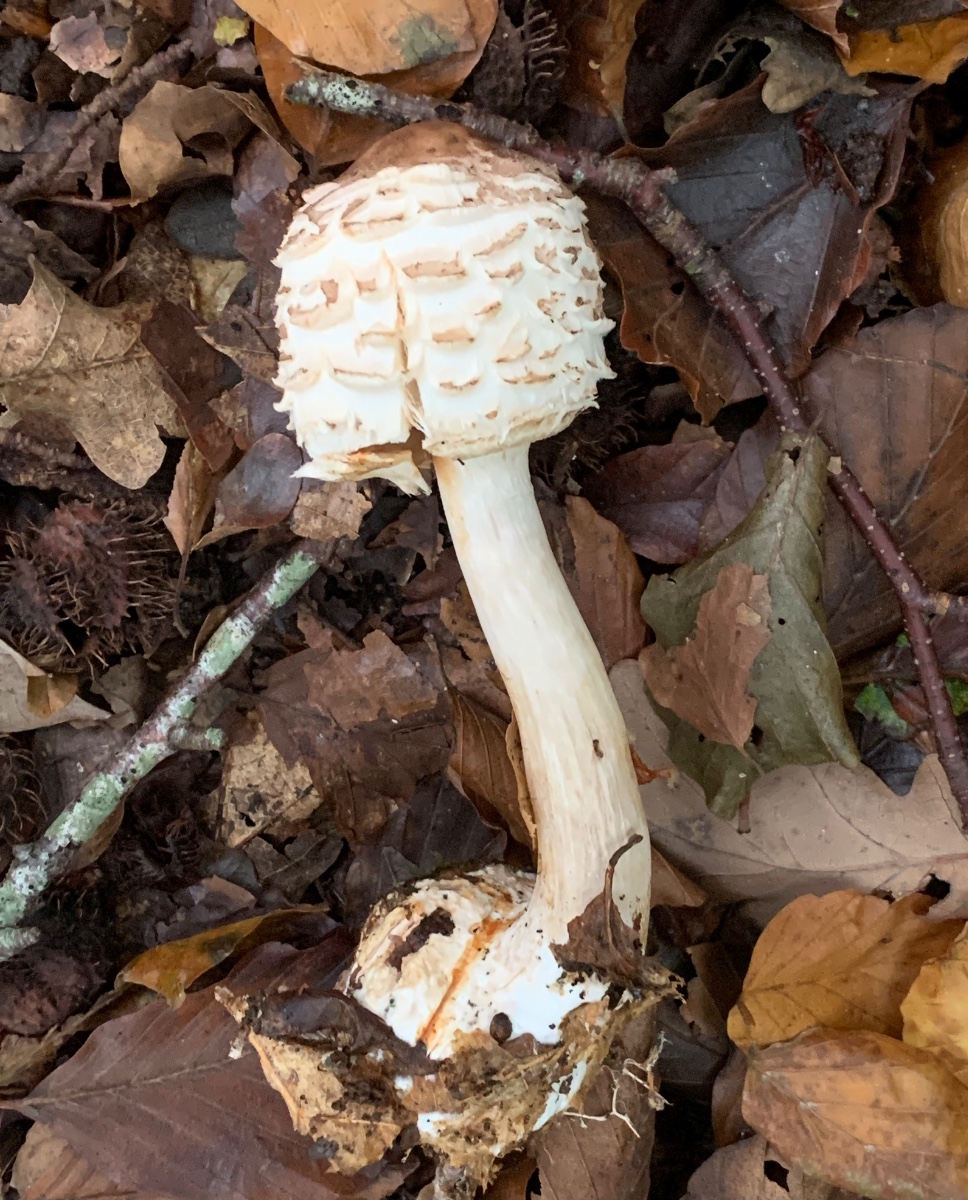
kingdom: Fungi
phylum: Basidiomycota
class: Agaricomycetes
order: Agaricales
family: Agaricaceae
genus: Chlorophyllum
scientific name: Chlorophyllum rhacodes
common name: ægte rabarberhat
